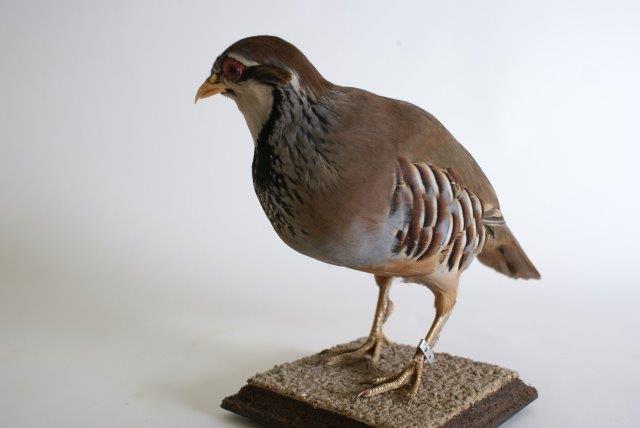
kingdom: Animalia
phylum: Chordata
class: Aves
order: Galliformes
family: Phasianidae
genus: Alectoris
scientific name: Alectoris rufa
